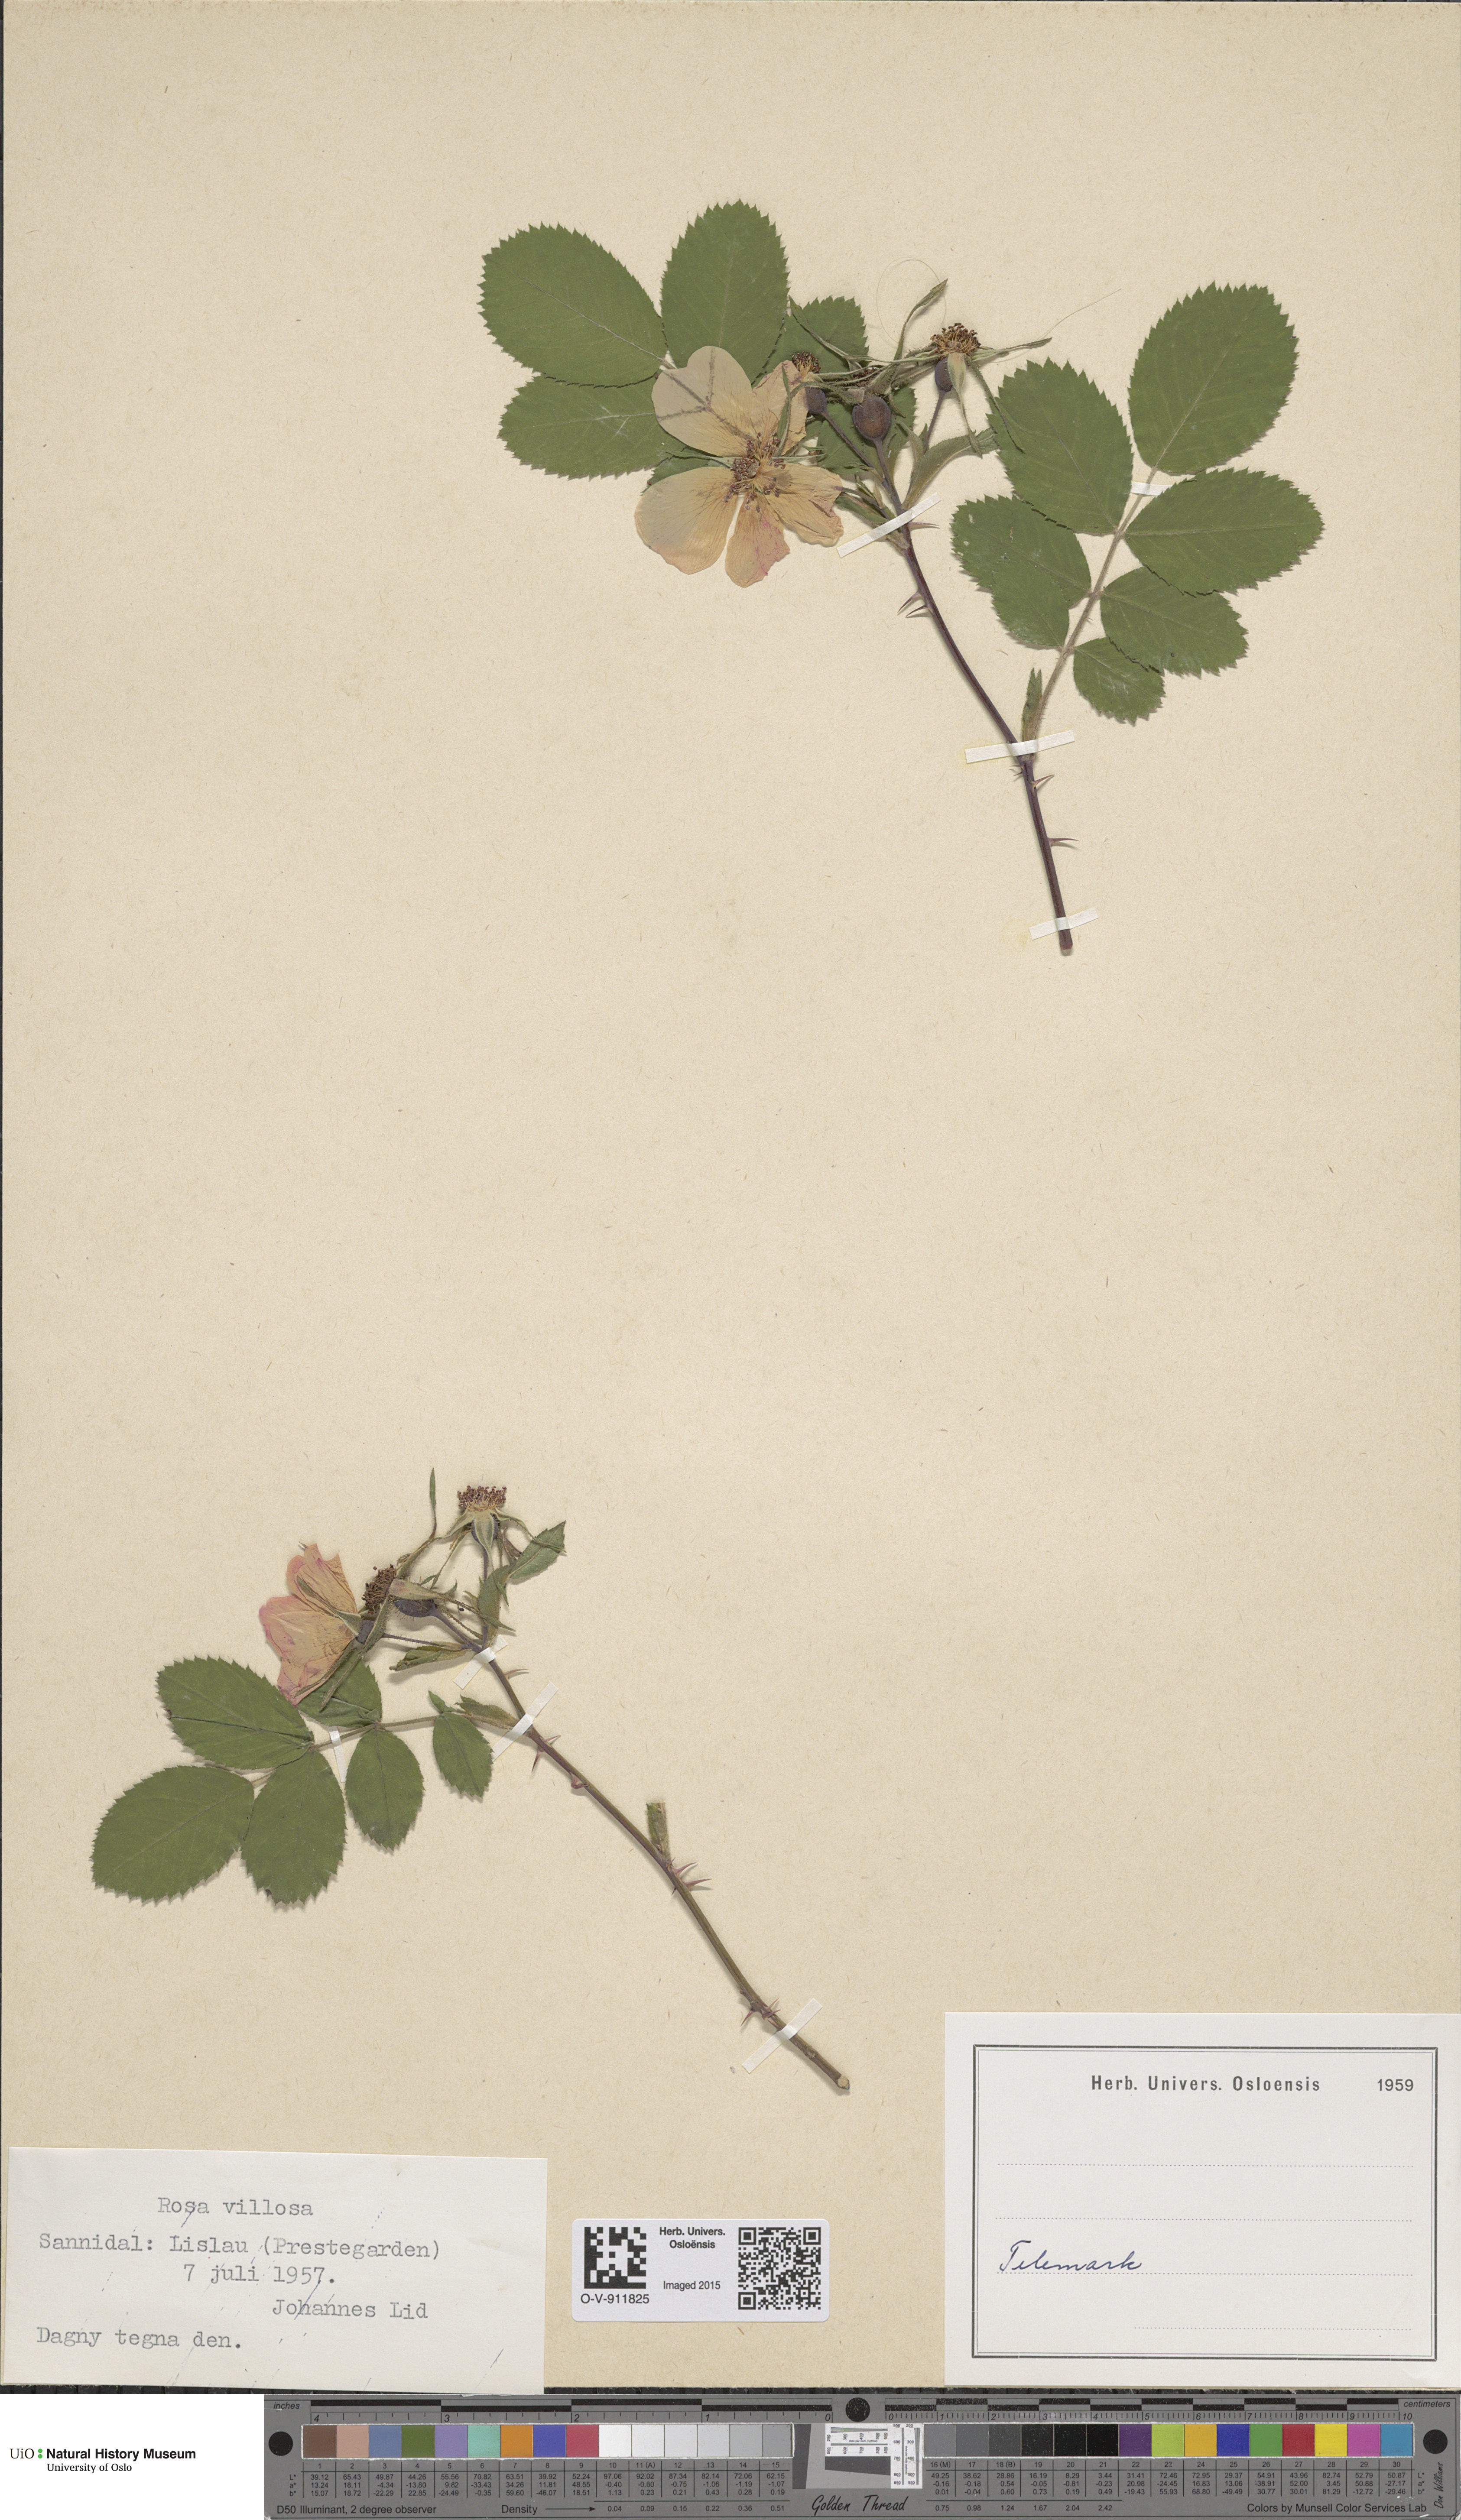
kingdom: Plantae
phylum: Tracheophyta
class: Magnoliopsida
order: Rosales
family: Rosaceae
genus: Rosa
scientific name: Rosa villosa
